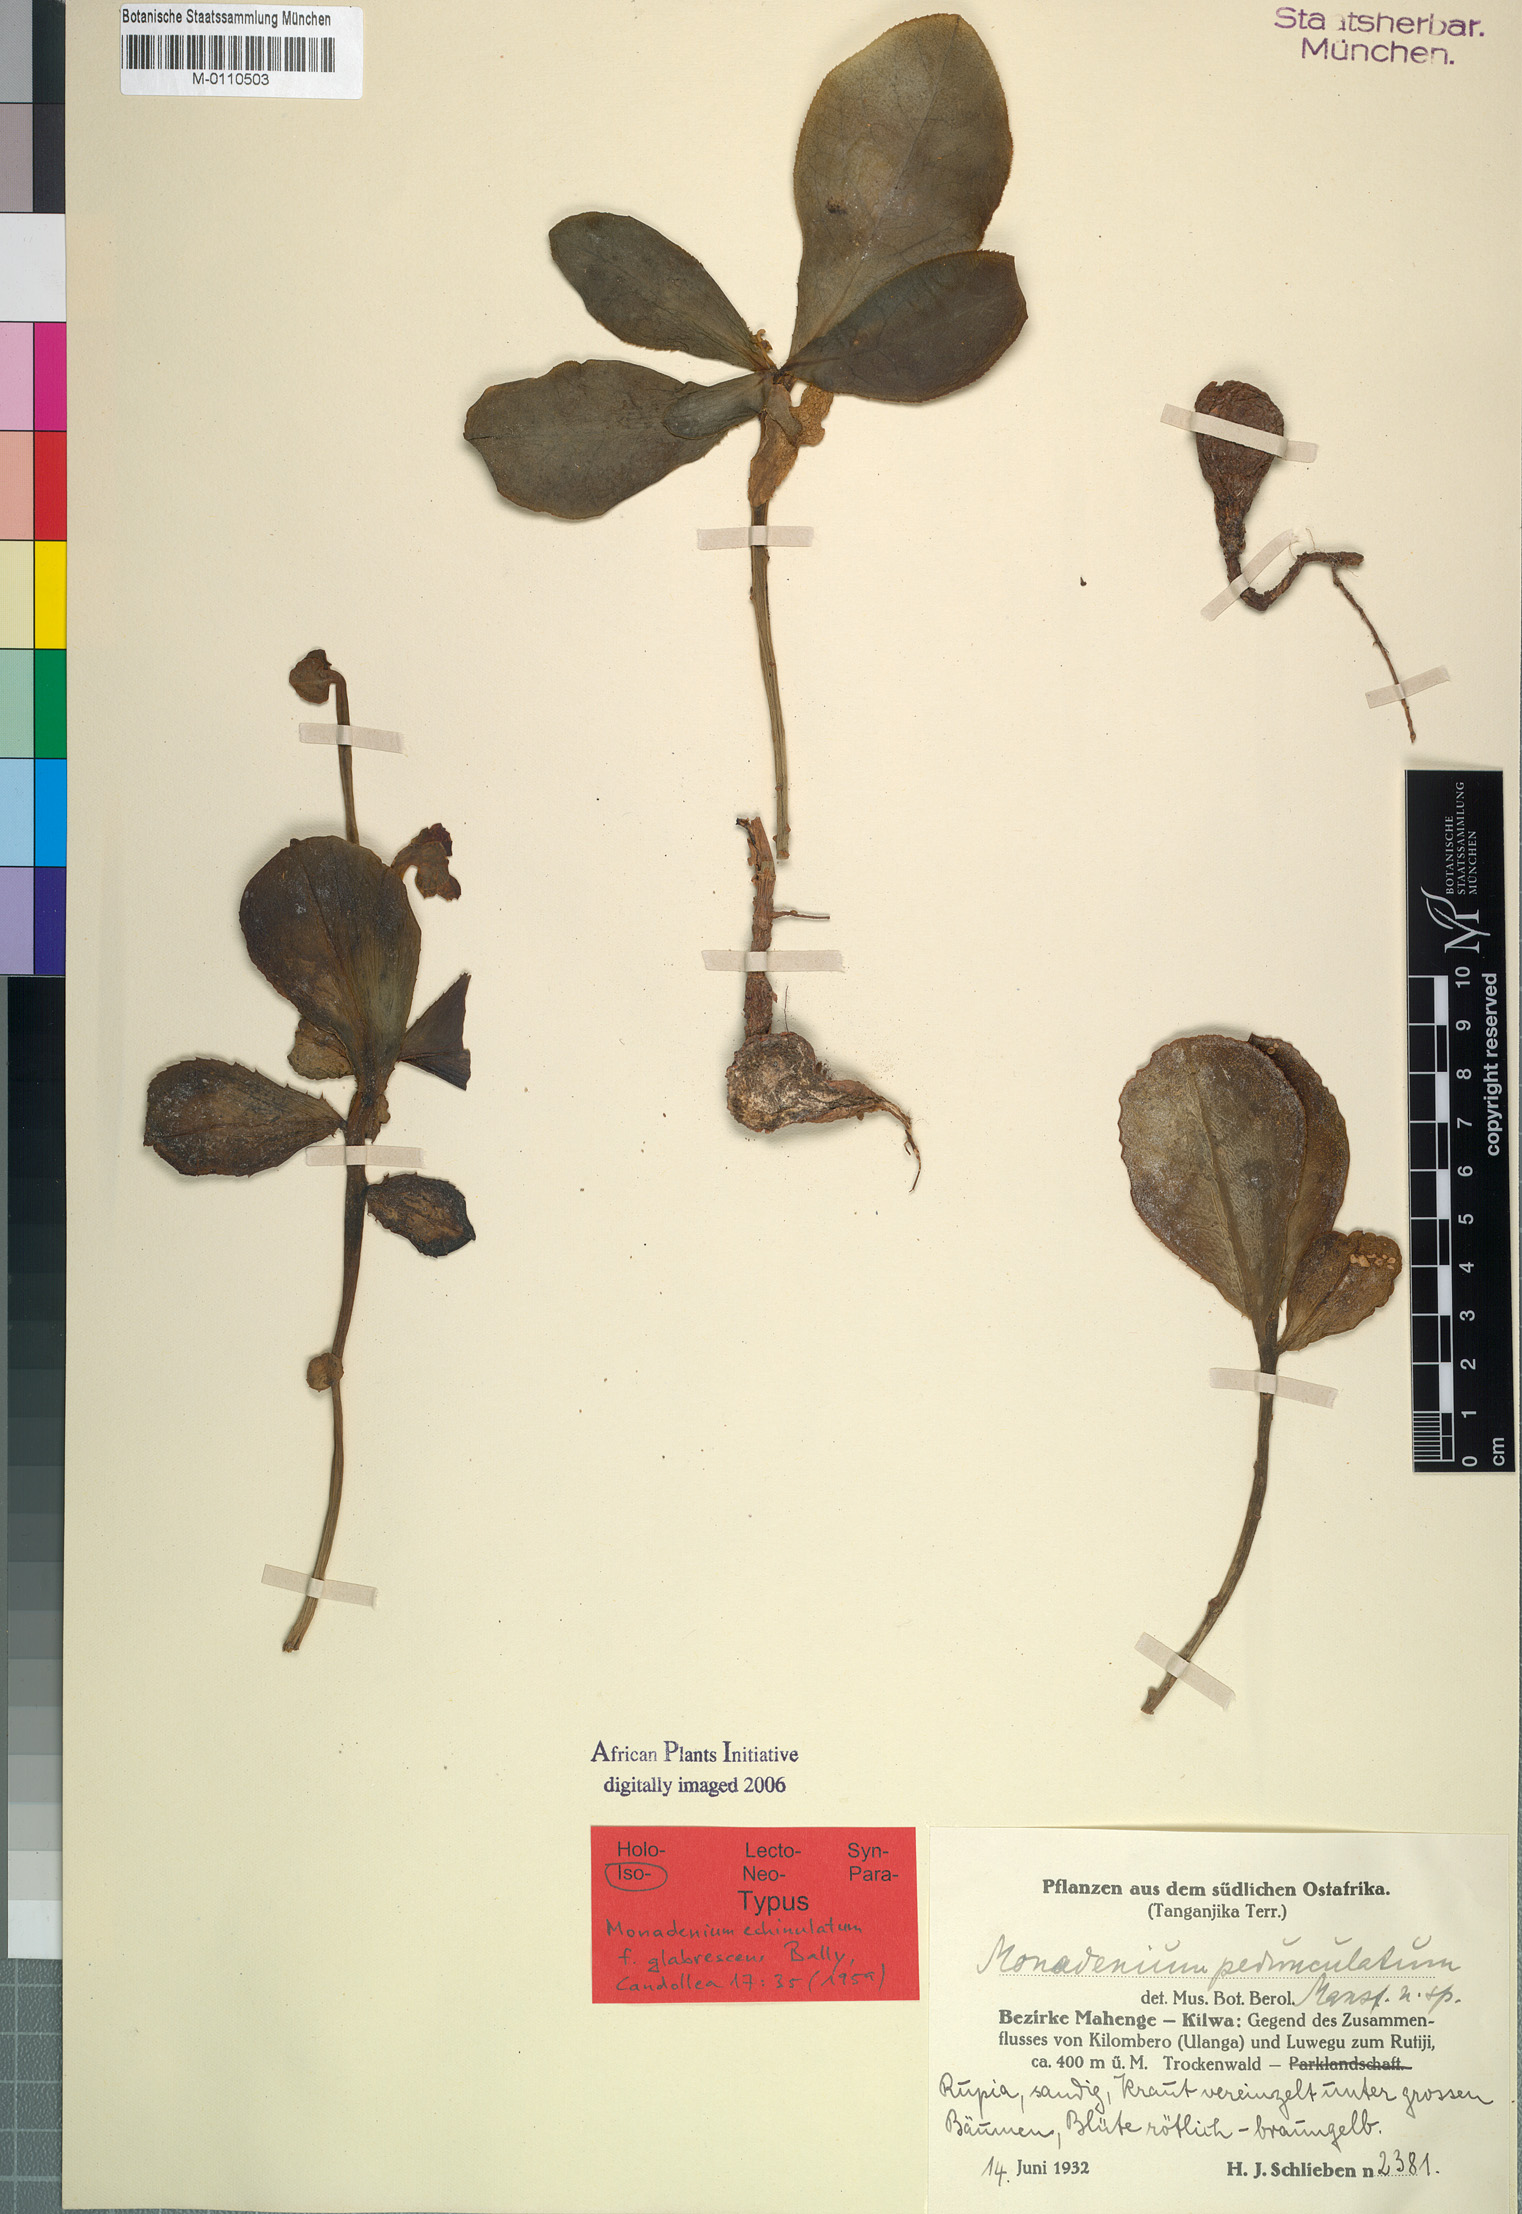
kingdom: Plantae
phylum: Tracheophyta
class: Magnoliopsida
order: Malpighiales
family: Euphorbiaceae
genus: Euphorbia
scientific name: Euphorbia echinulata
